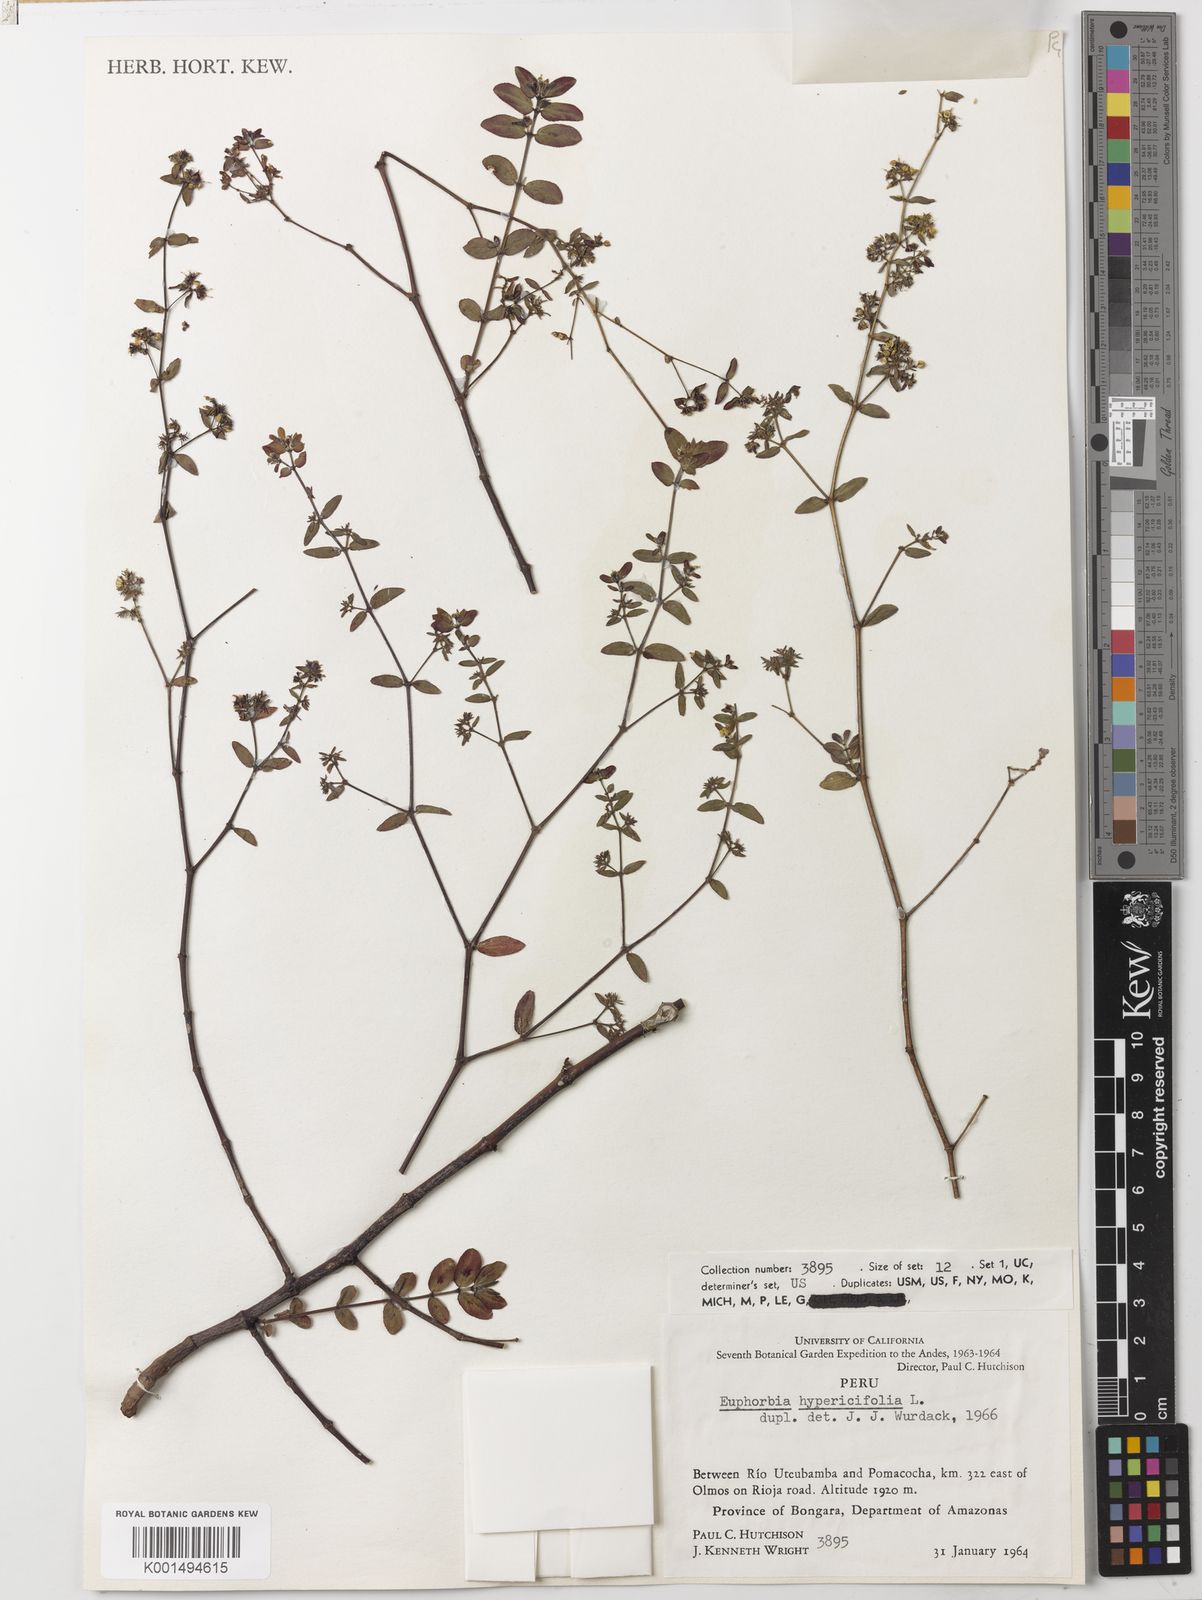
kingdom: Plantae
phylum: Tracheophyta
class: Magnoliopsida
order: Malpighiales
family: Euphorbiaceae
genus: Euphorbia
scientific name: Euphorbia hypericifolia
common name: Graceful sandmat
